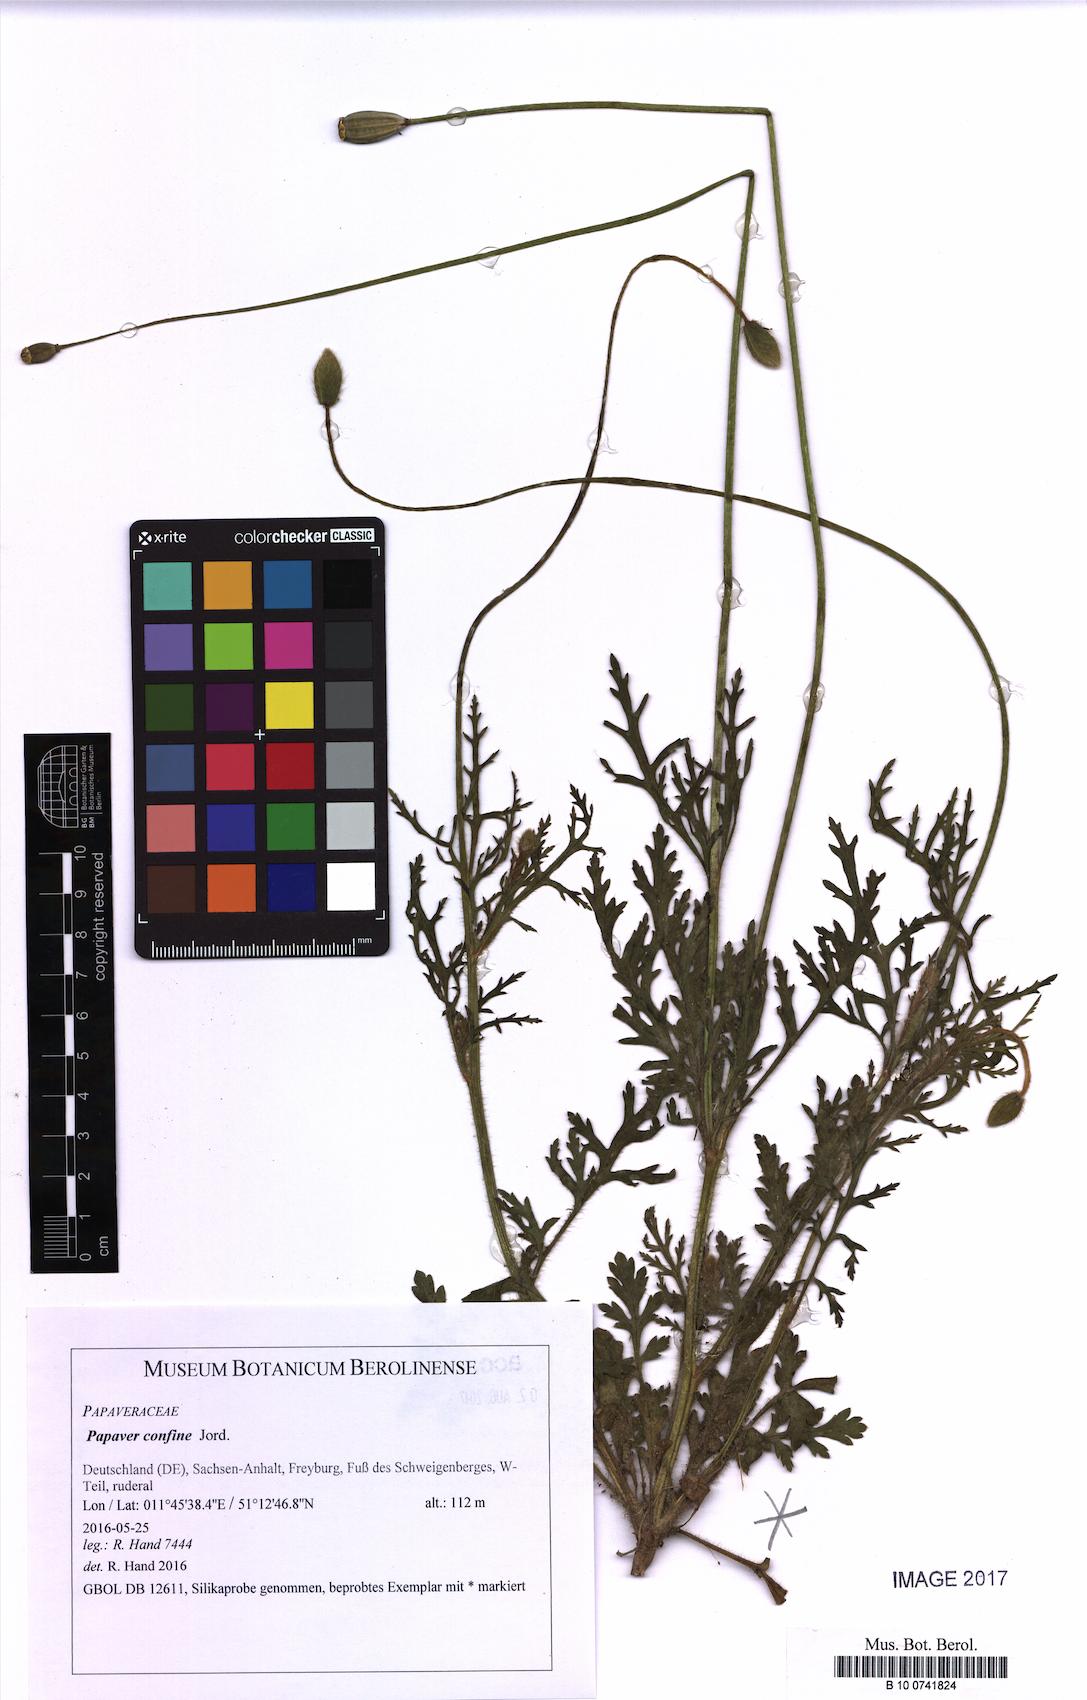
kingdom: Plantae
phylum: Tracheophyta
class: Magnoliopsida
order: Ranunculales
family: Papaveraceae
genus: Papaver
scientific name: Papaver confine
